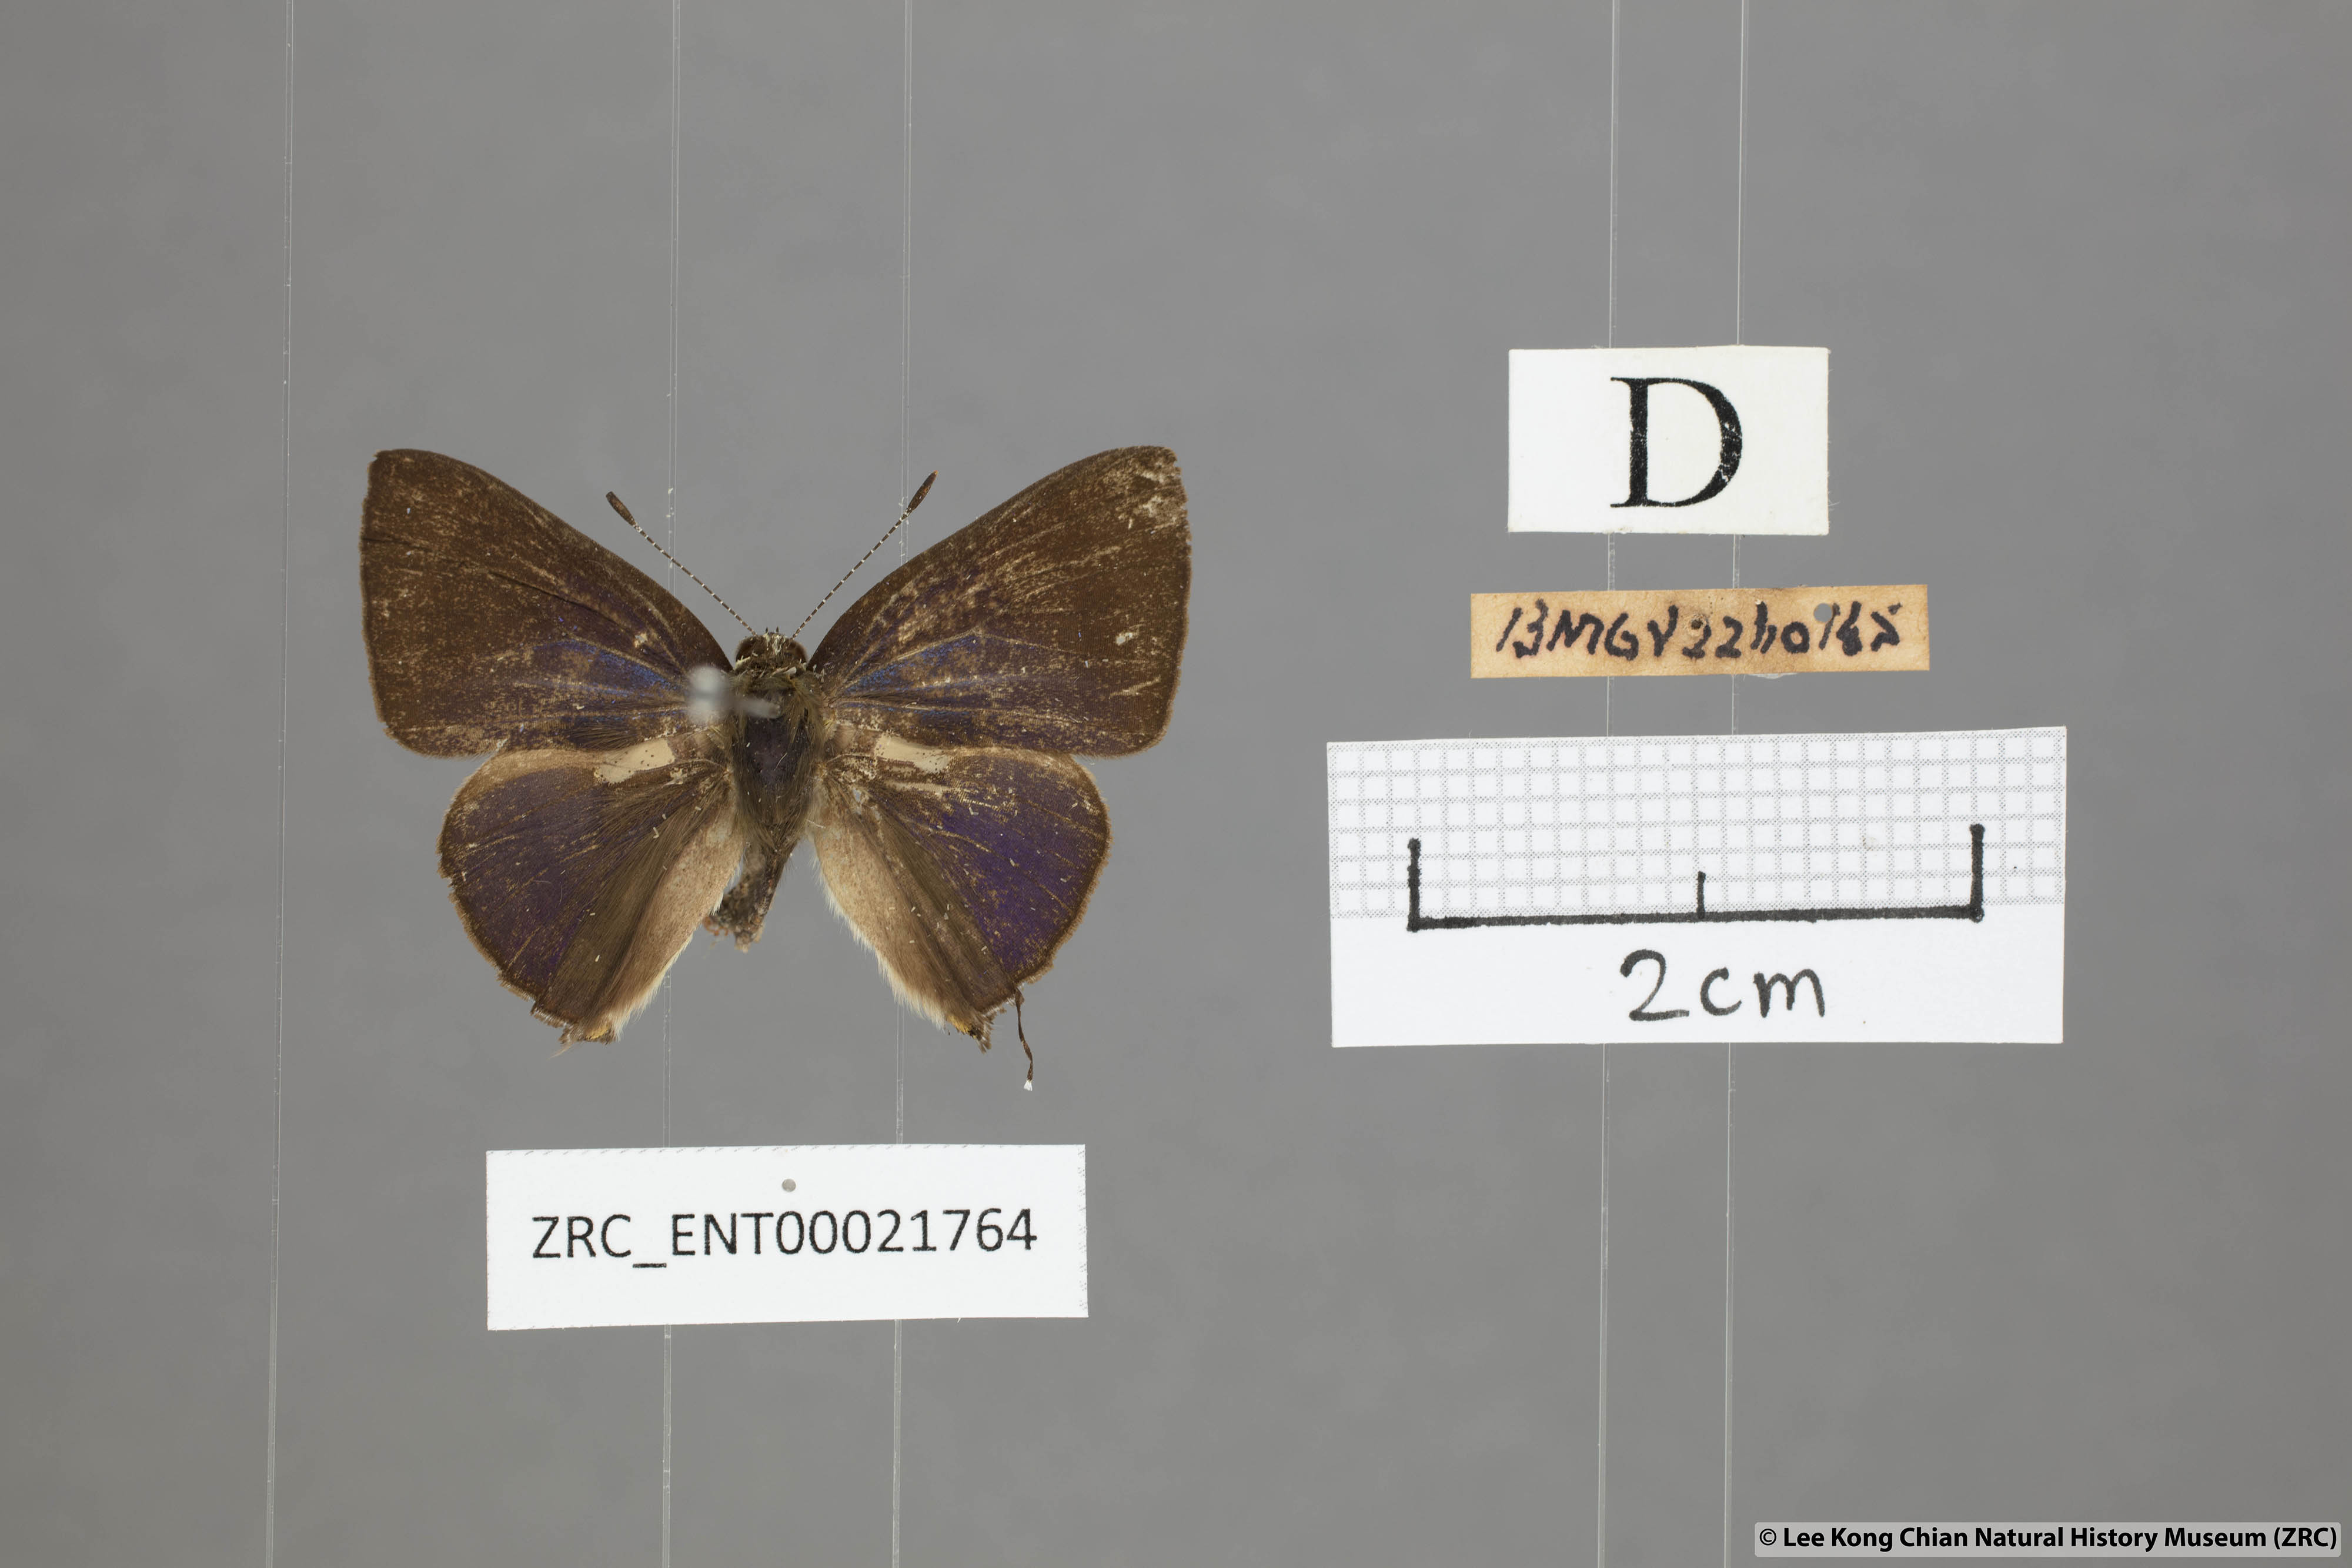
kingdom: Animalia
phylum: Arthropoda
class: Insecta
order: Lepidoptera
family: Lycaenidae
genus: Rapala
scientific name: Rapala
